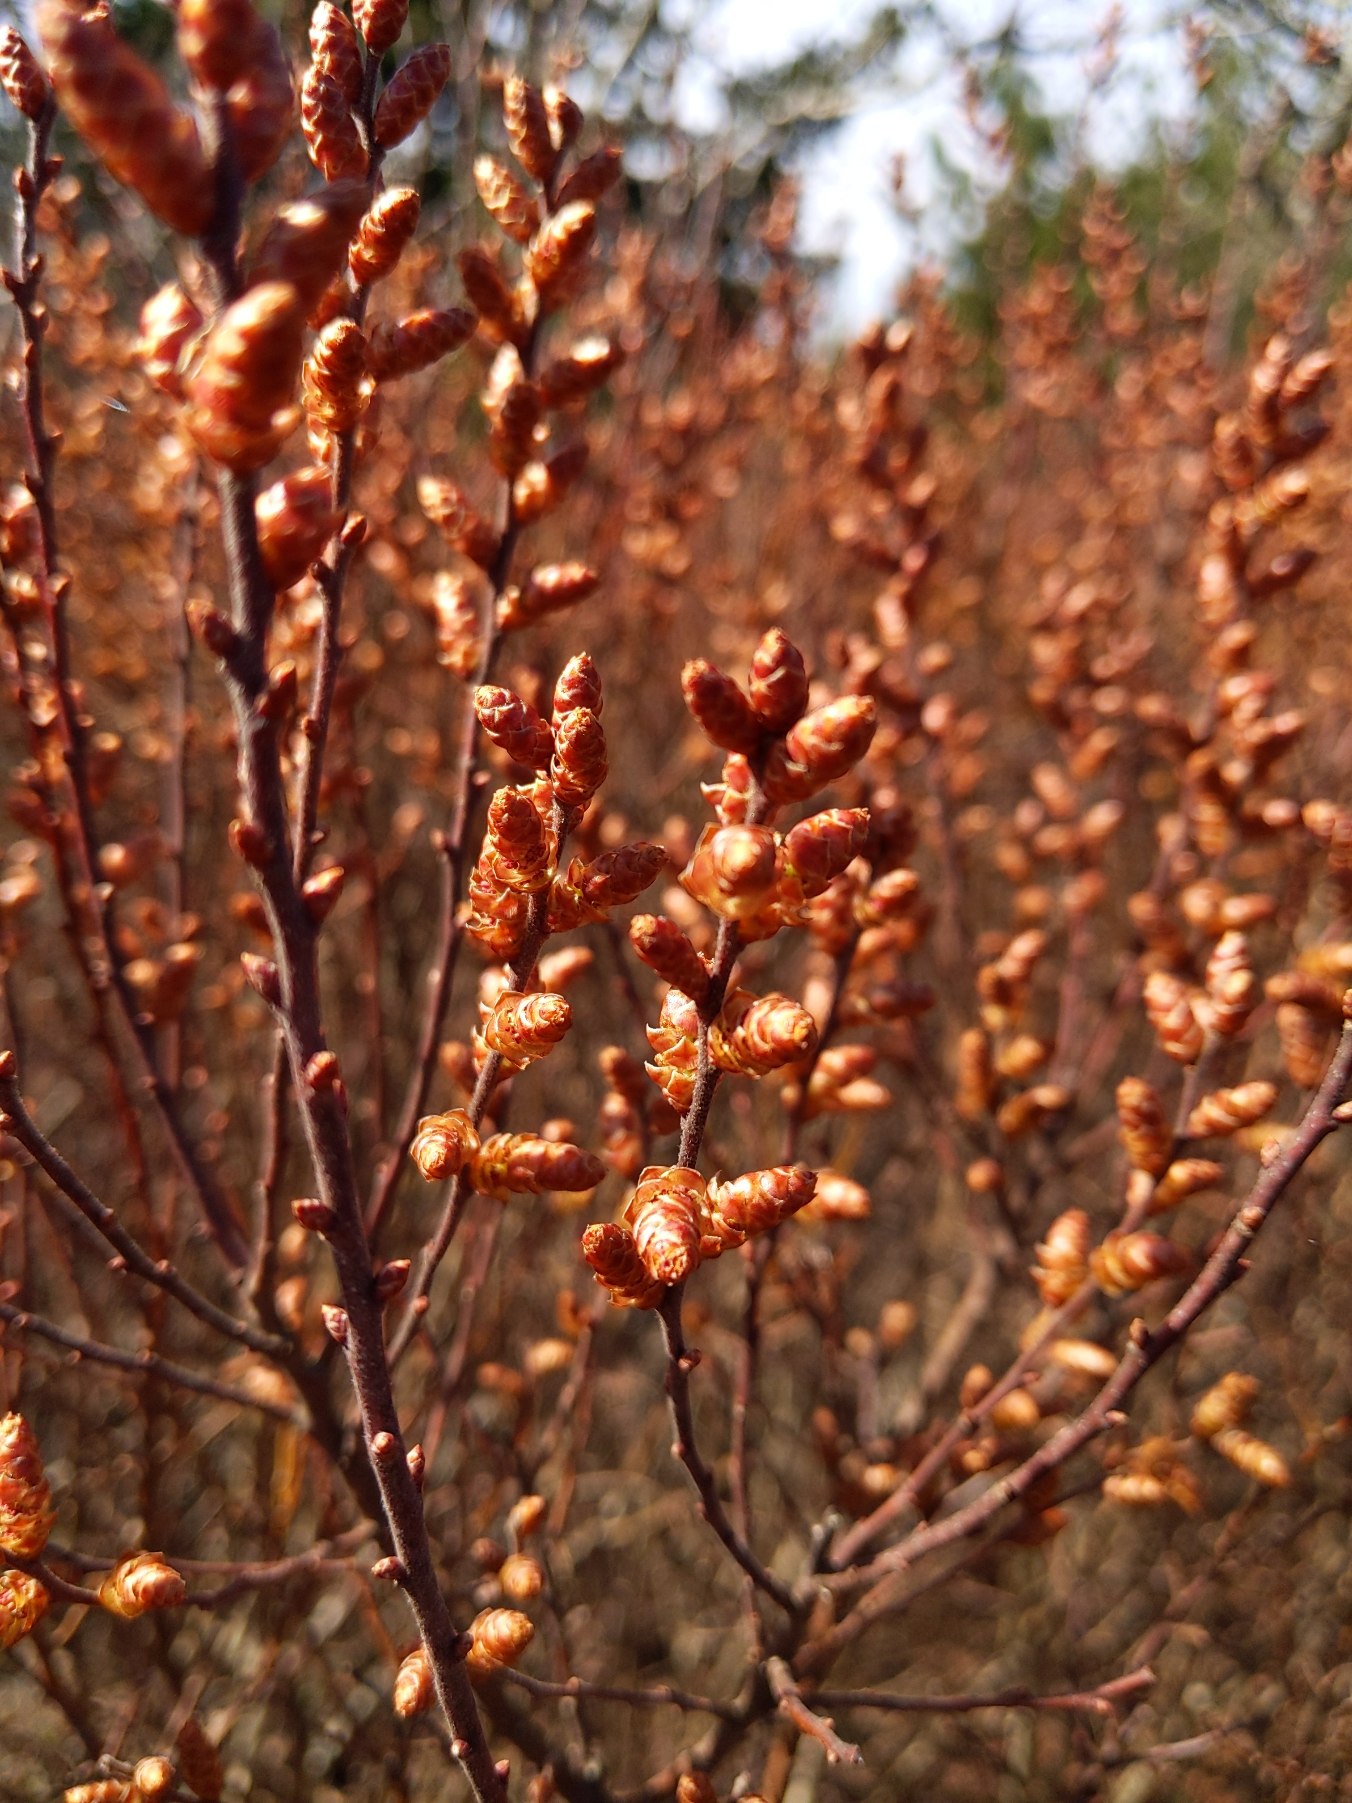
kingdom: Plantae
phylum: Tracheophyta
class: Magnoliopsida
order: Fagales
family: Myricaceae
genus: Myrica
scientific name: Myrica gale
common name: Pors
